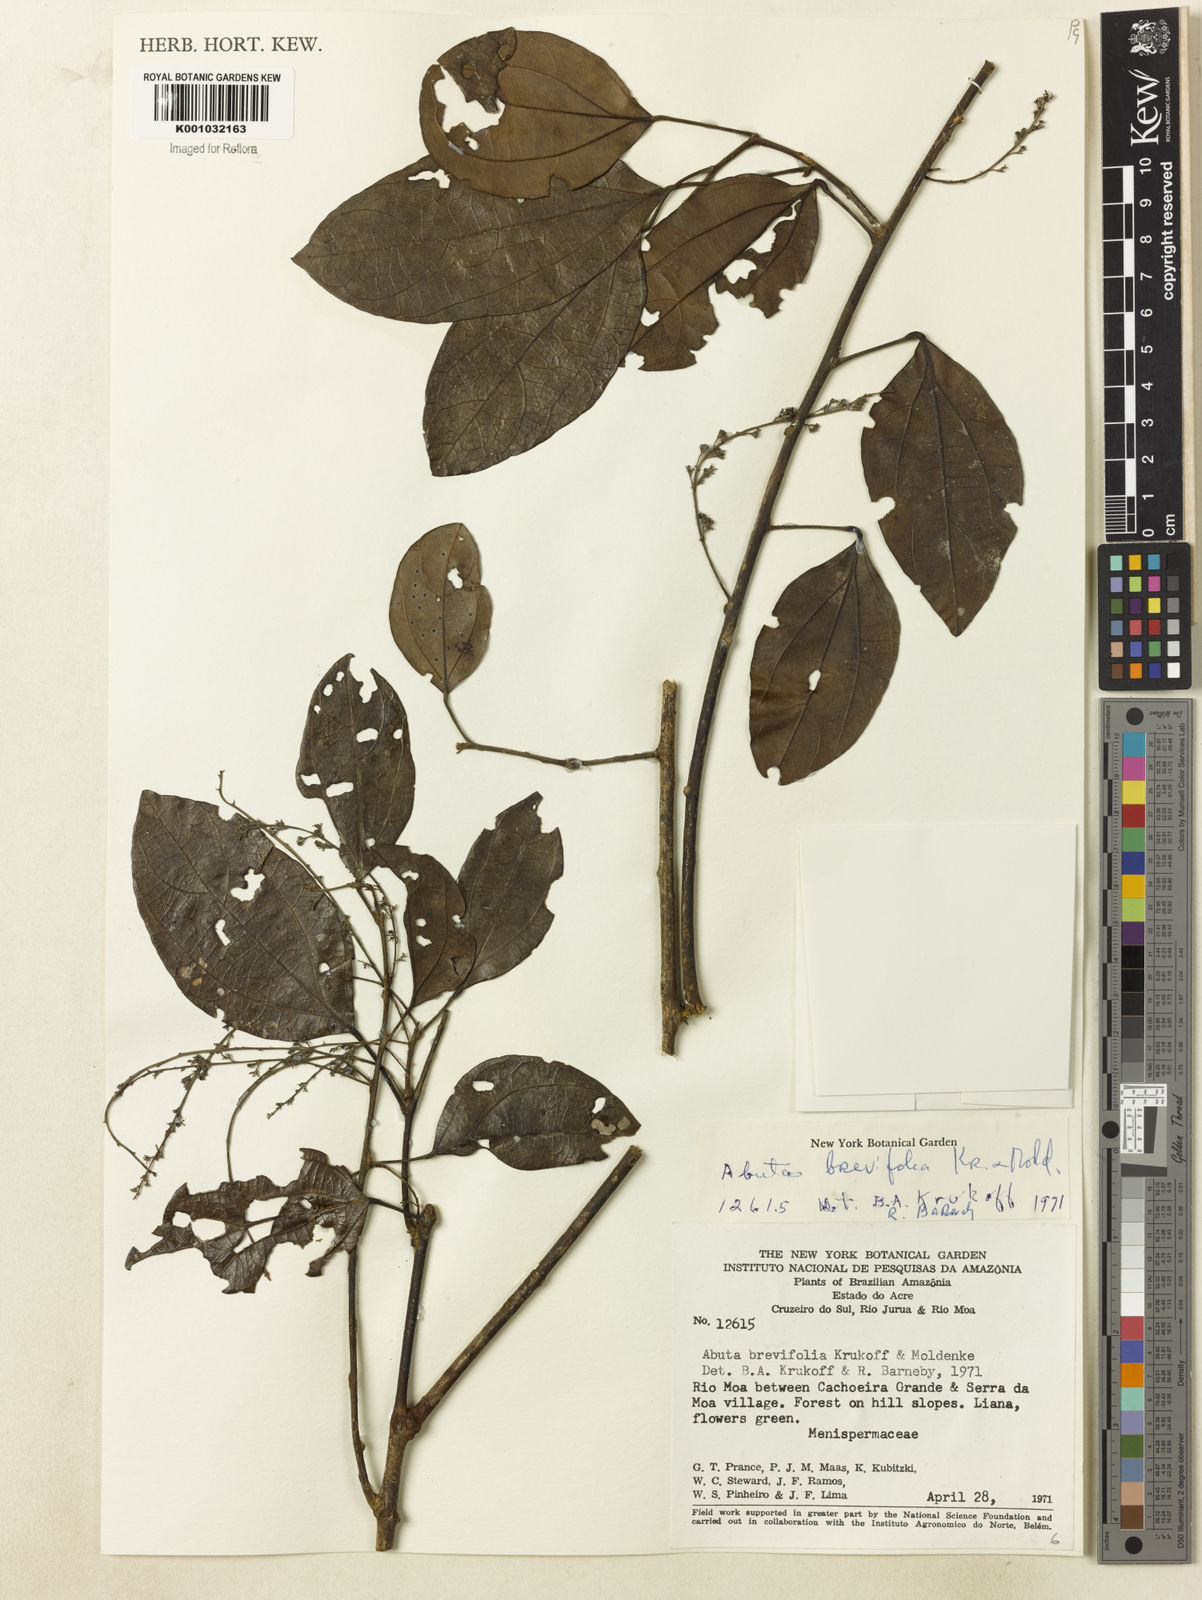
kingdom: Plantae
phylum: Tracheophyta
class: Magnoliopsida
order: Ranunculales
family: Menispermaceae
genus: Abuta
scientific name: Abuta brevifolia
